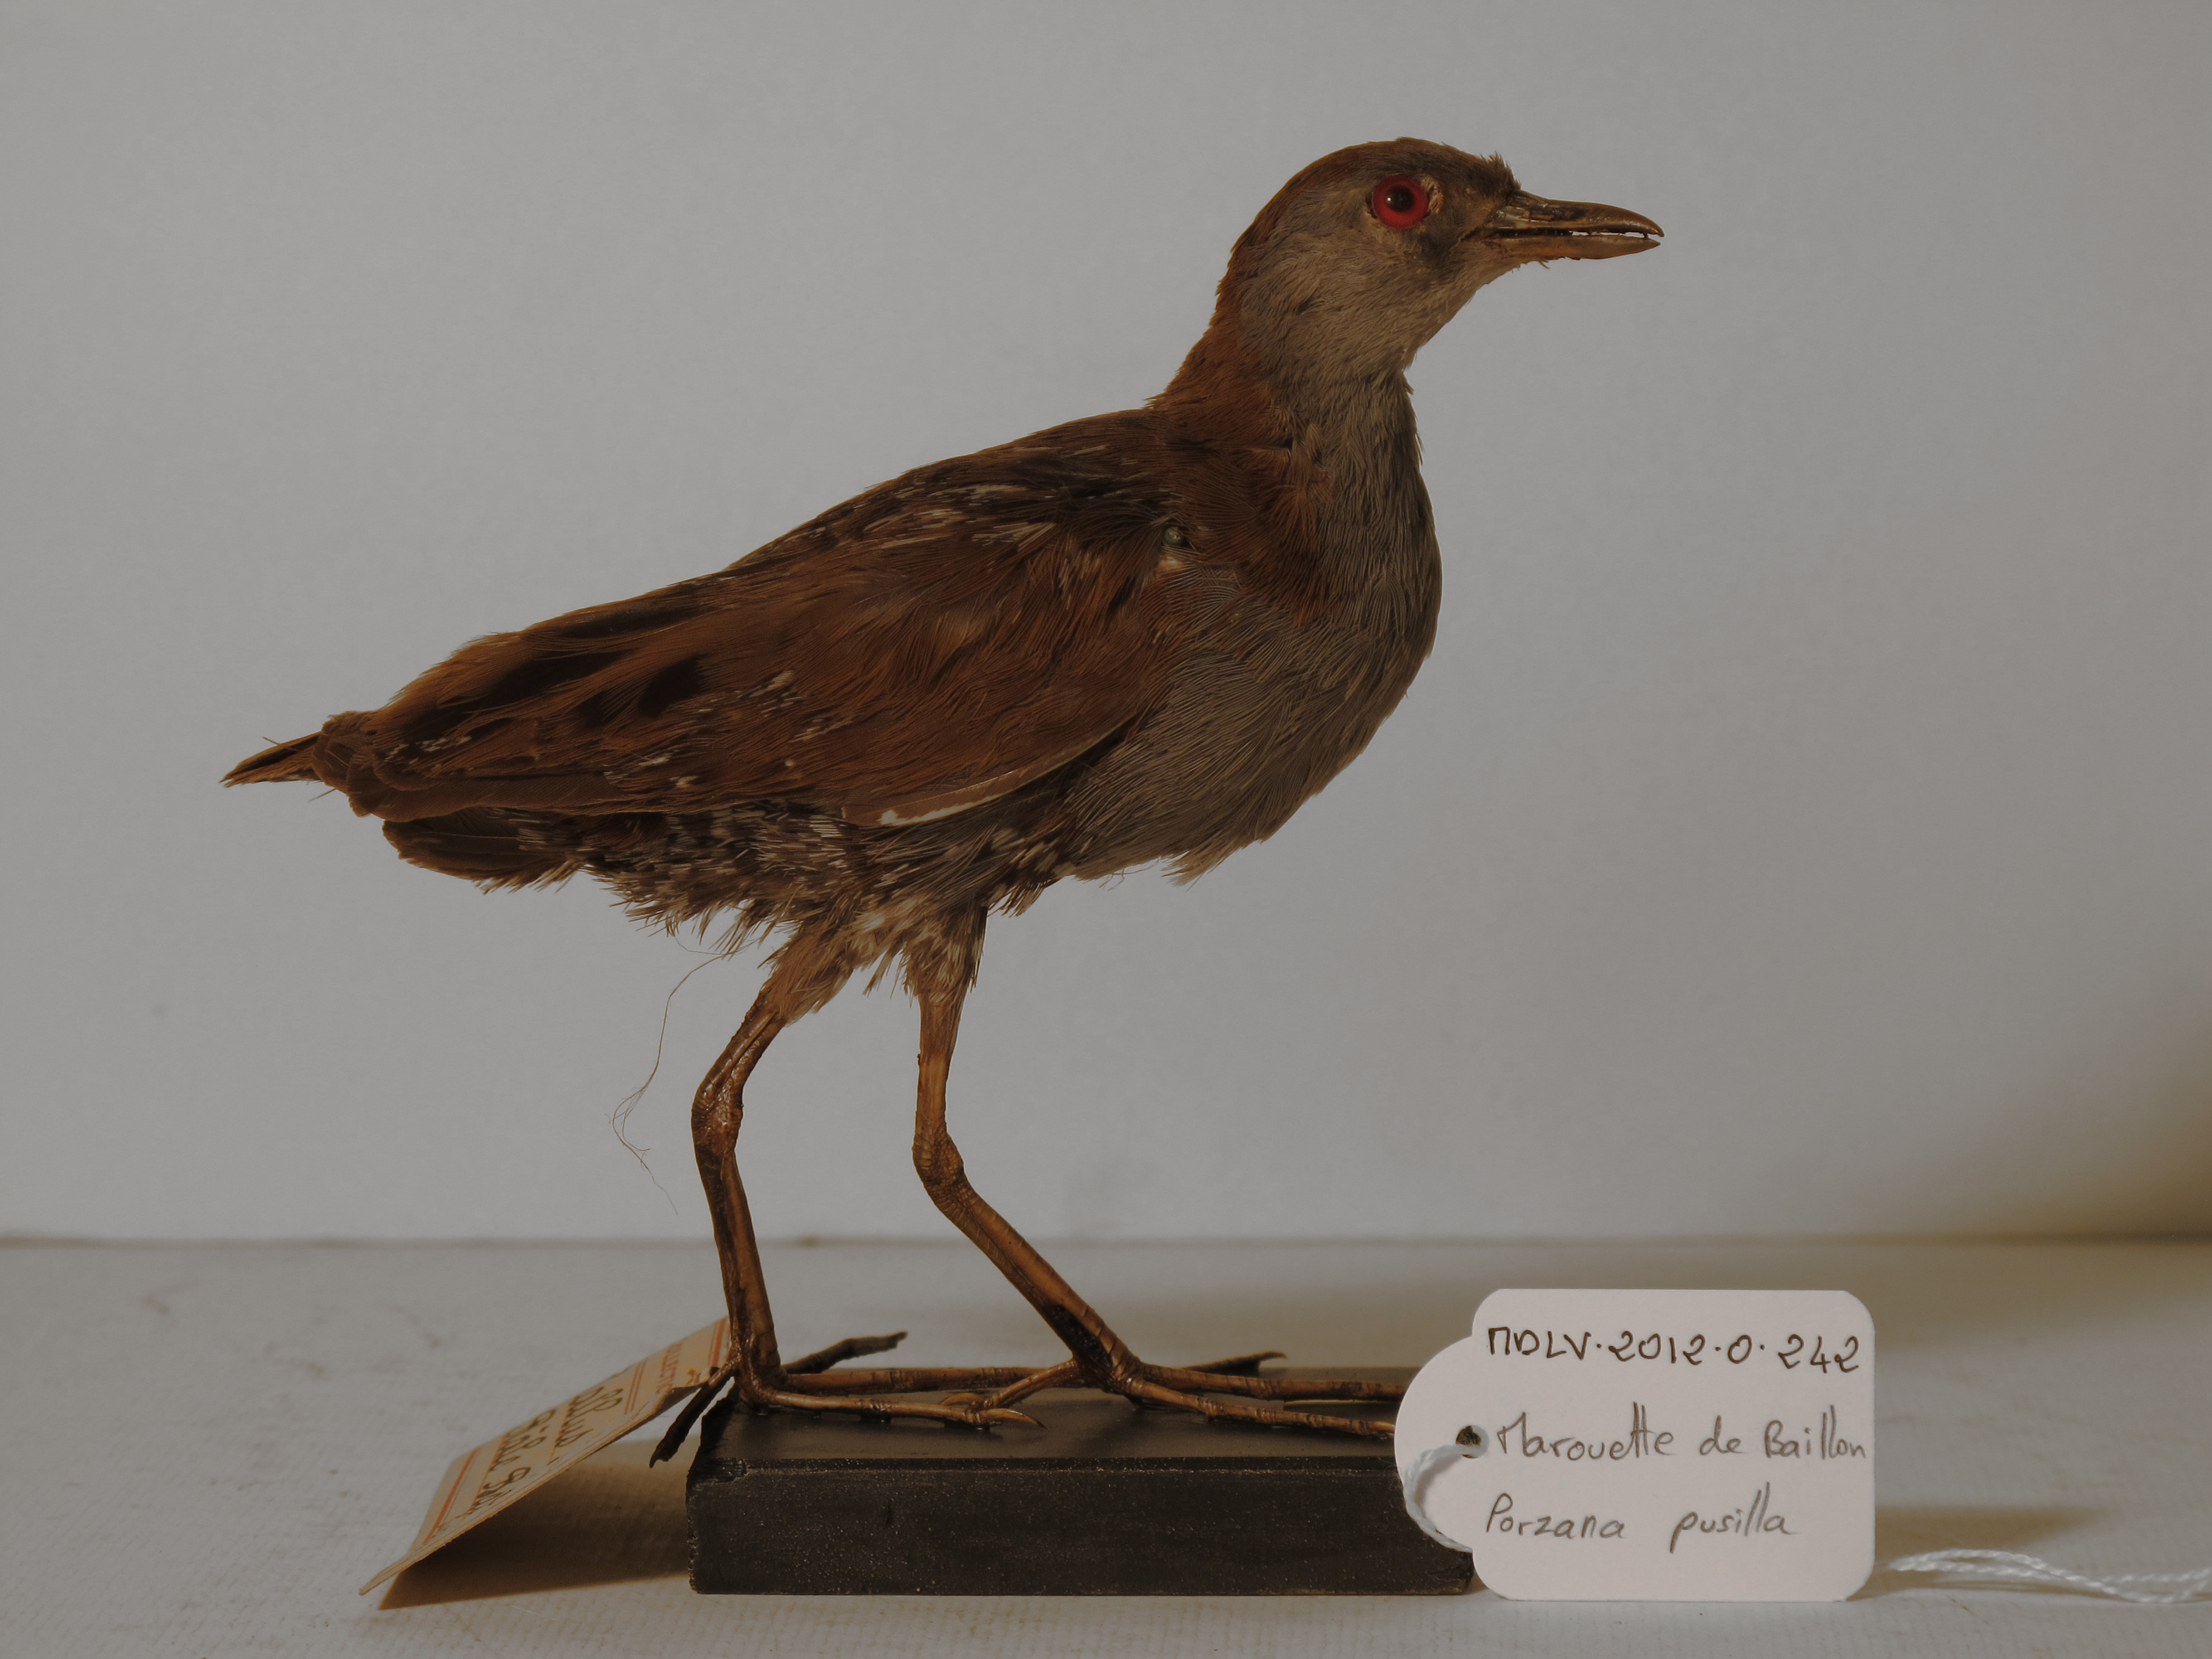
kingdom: Animalia
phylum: Chordata
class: Aves
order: Gruiformes
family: Rallidae
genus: Porzana
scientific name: Porzana pusilla
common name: Baillon's Crake
